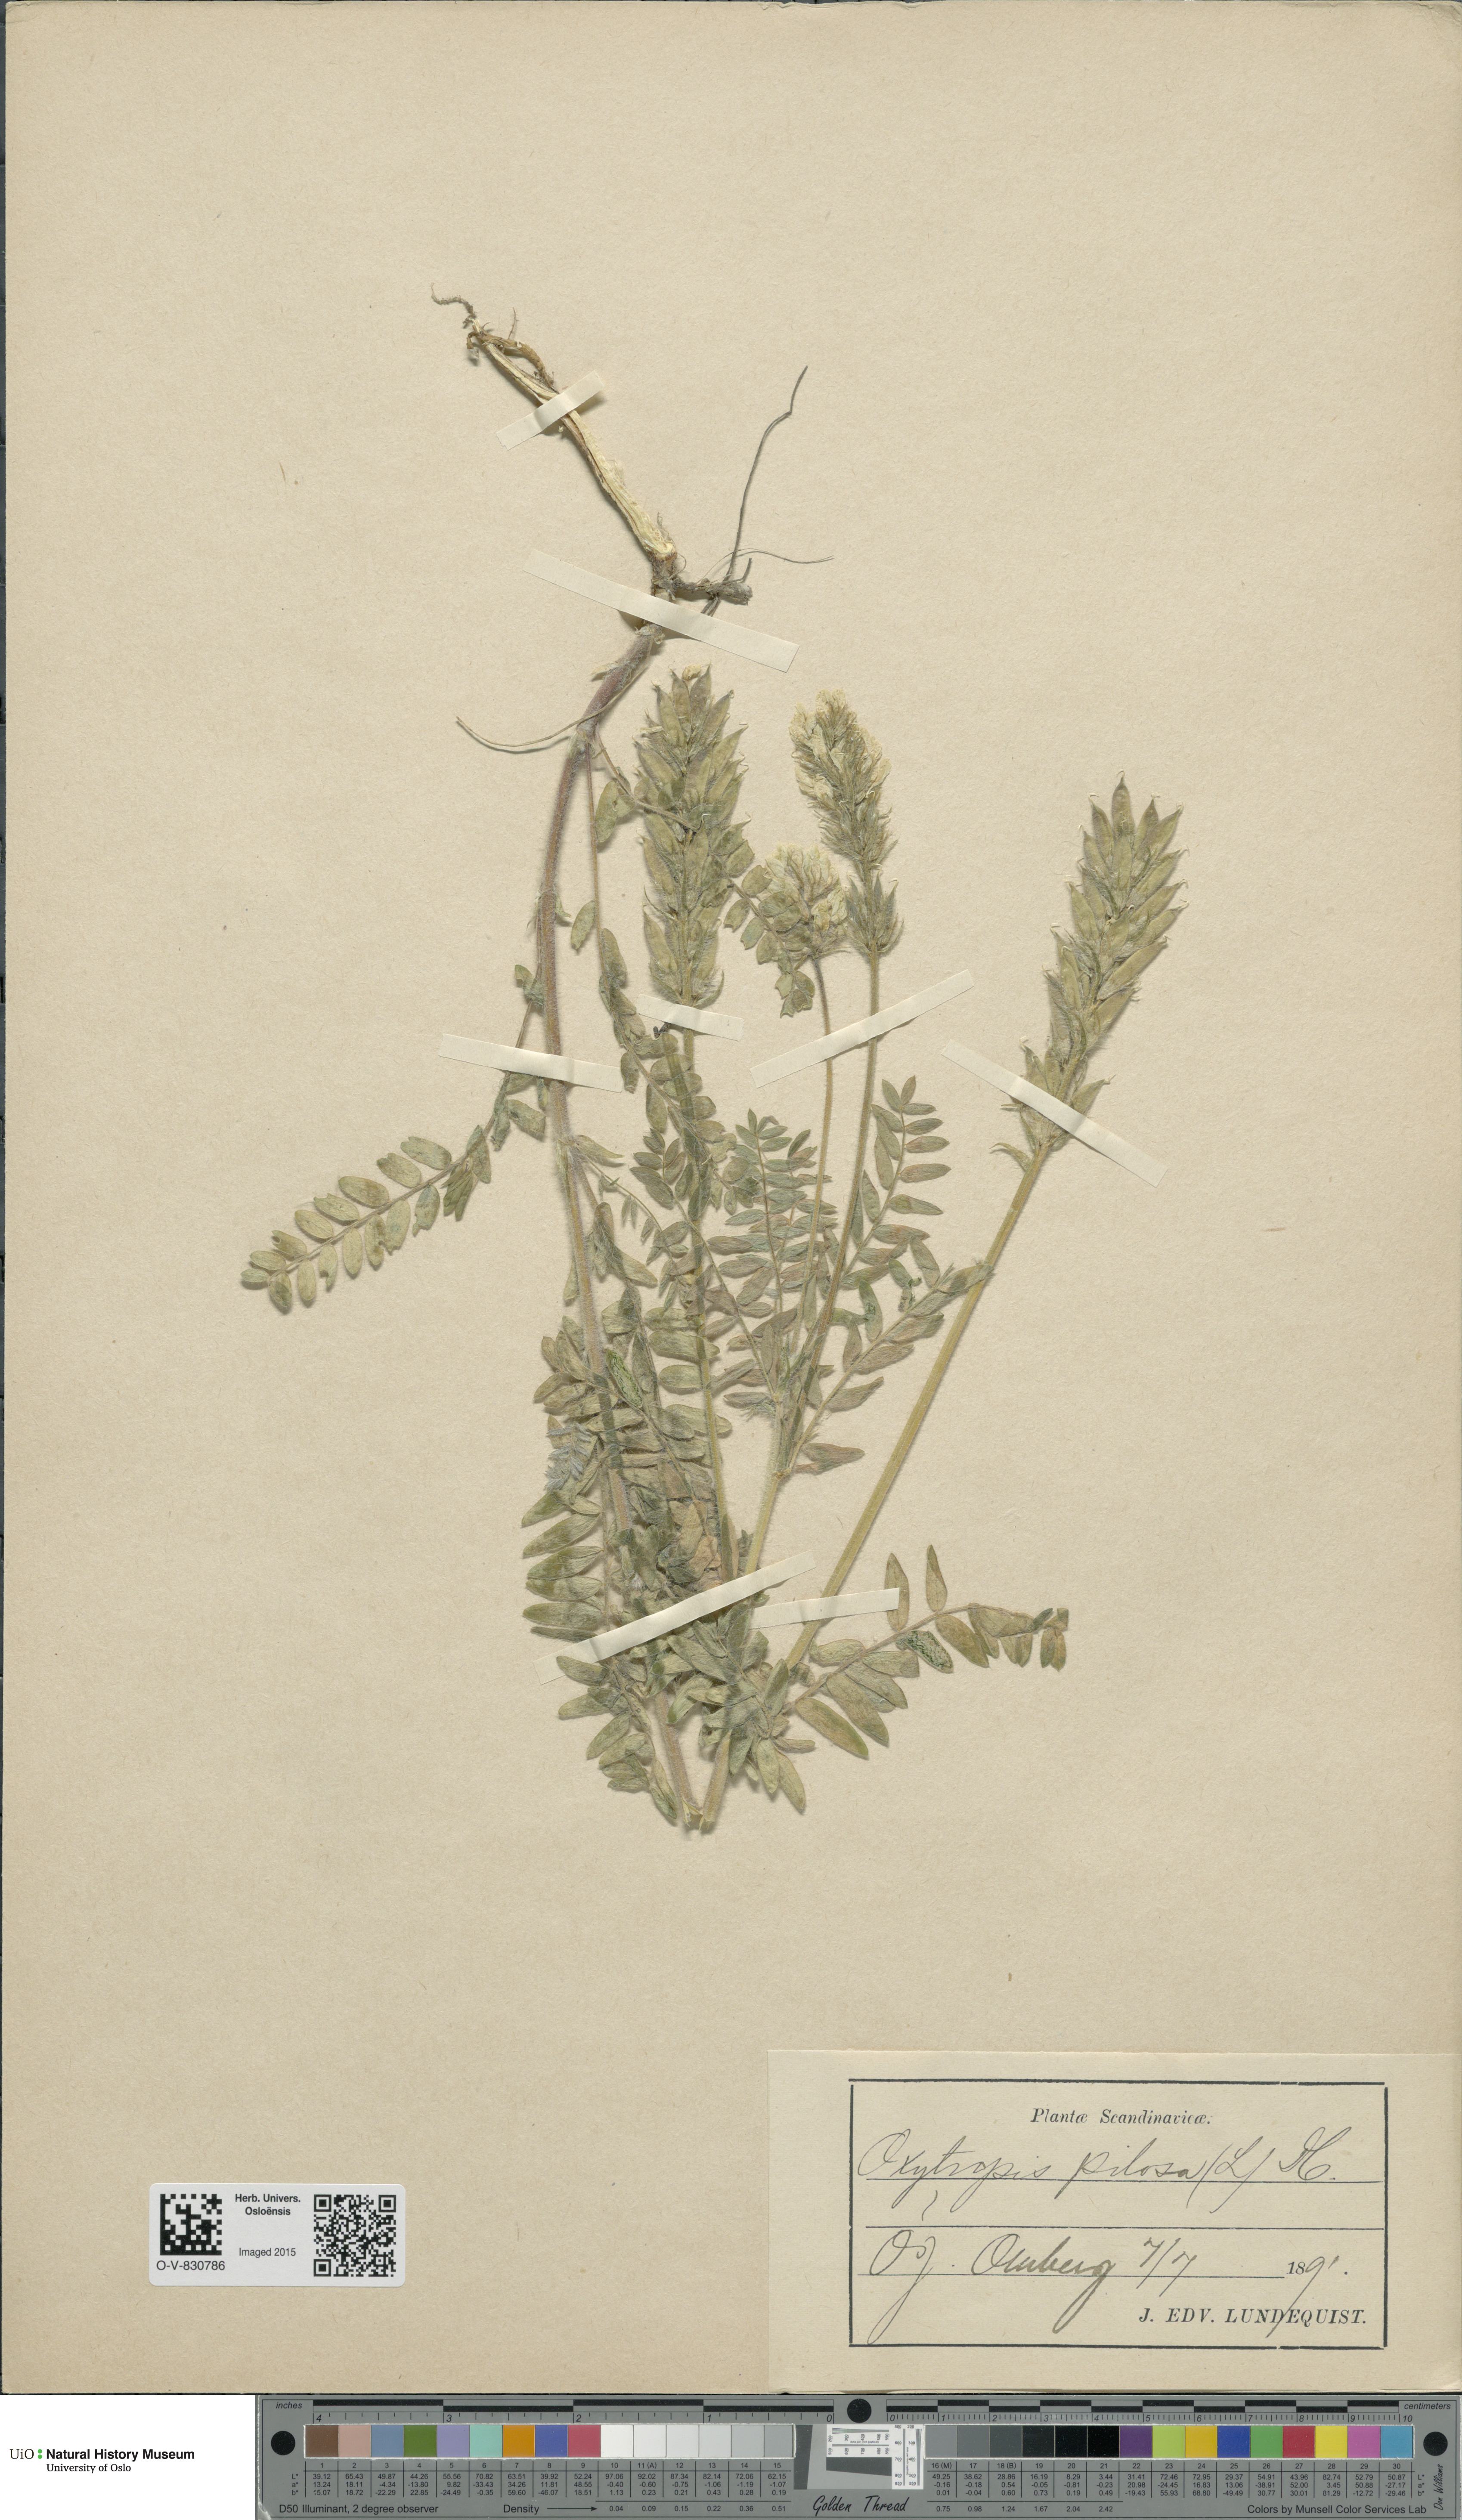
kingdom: Plantae
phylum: Tracheophyta
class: Magnoliopsida
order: Fabales
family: Fabaceae
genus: Oxytropis
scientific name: Oxytropis pilosa
